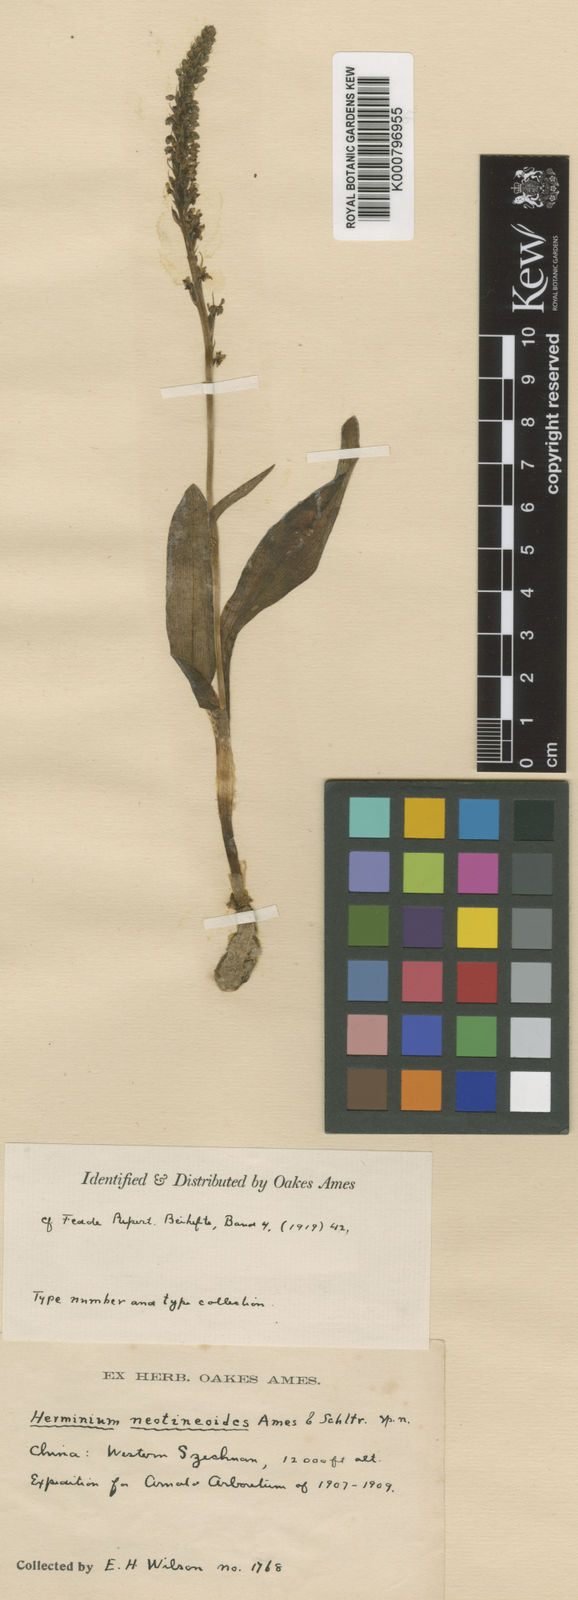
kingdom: Plantae
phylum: Tracheophyta
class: Liliopsida
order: Asparagales
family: Orchidaceae
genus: Herminium
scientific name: Herminium neotineoides
